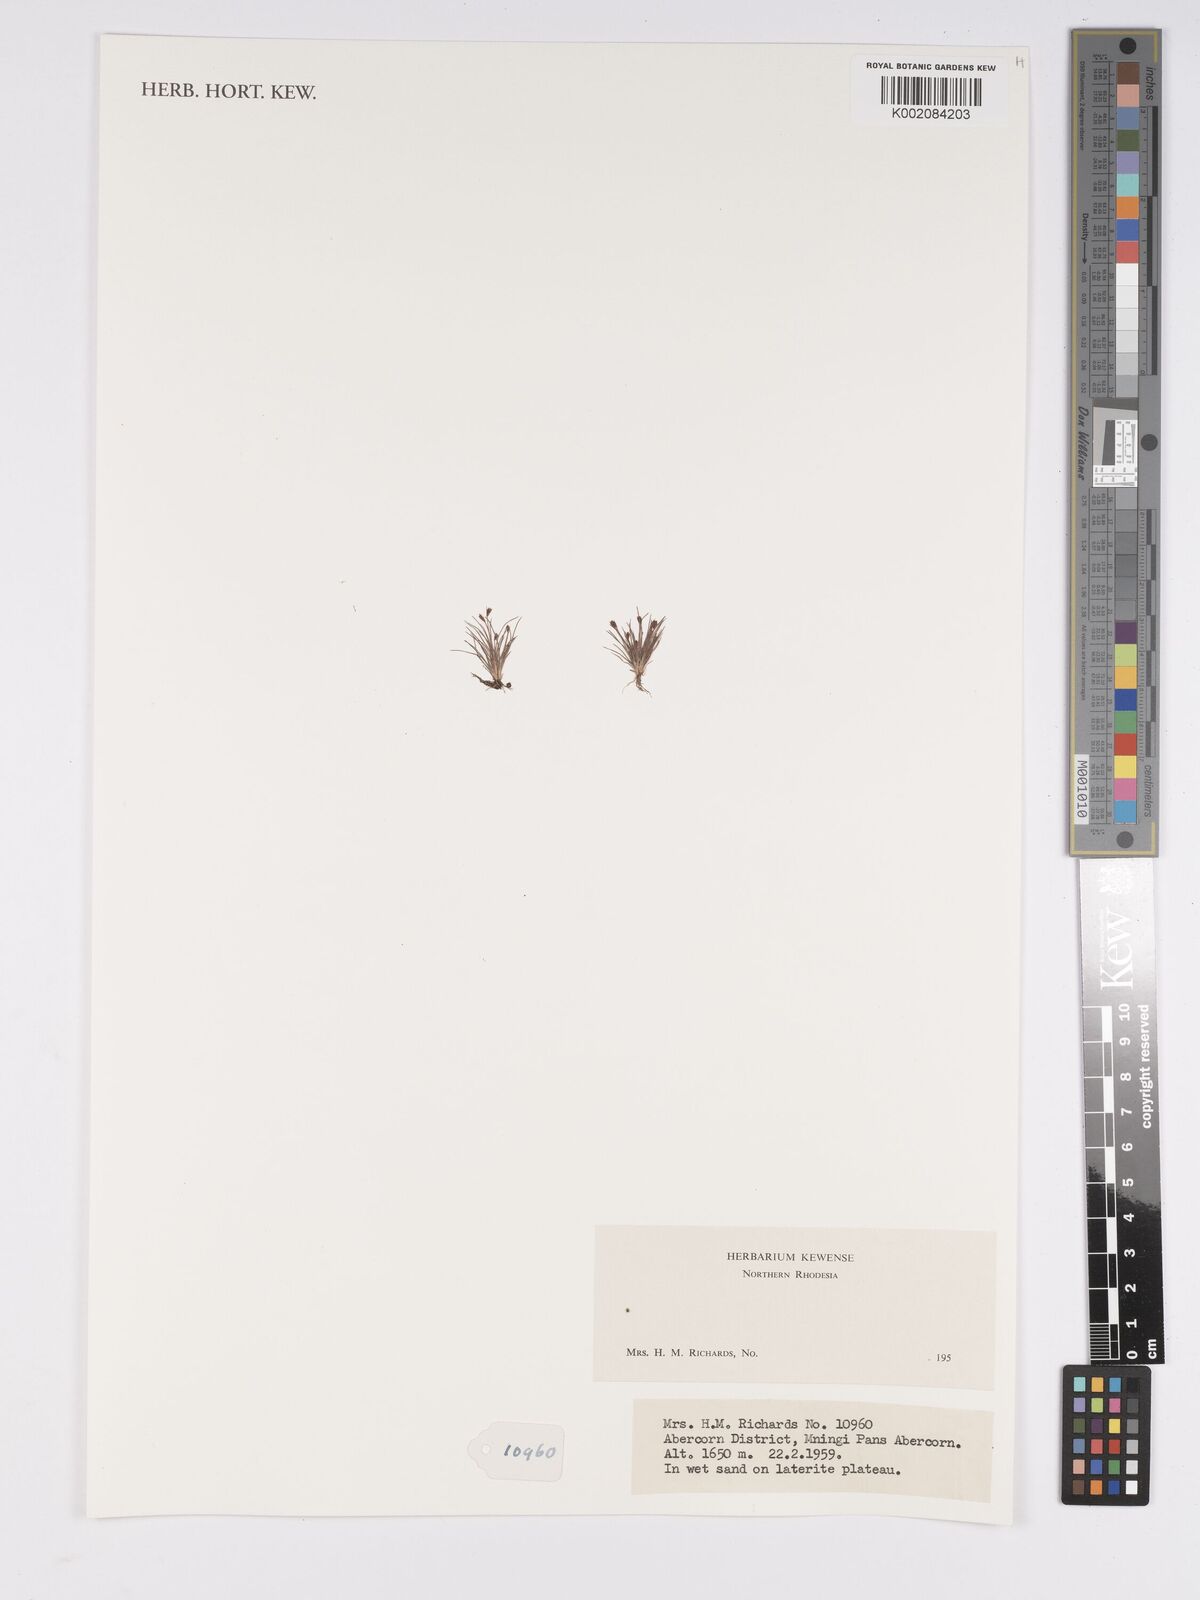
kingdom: Plantae
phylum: Tracheophyta
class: Liliopsida
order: Poales
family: Cyperaceae
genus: Bulbostylis
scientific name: Bulbostylis
